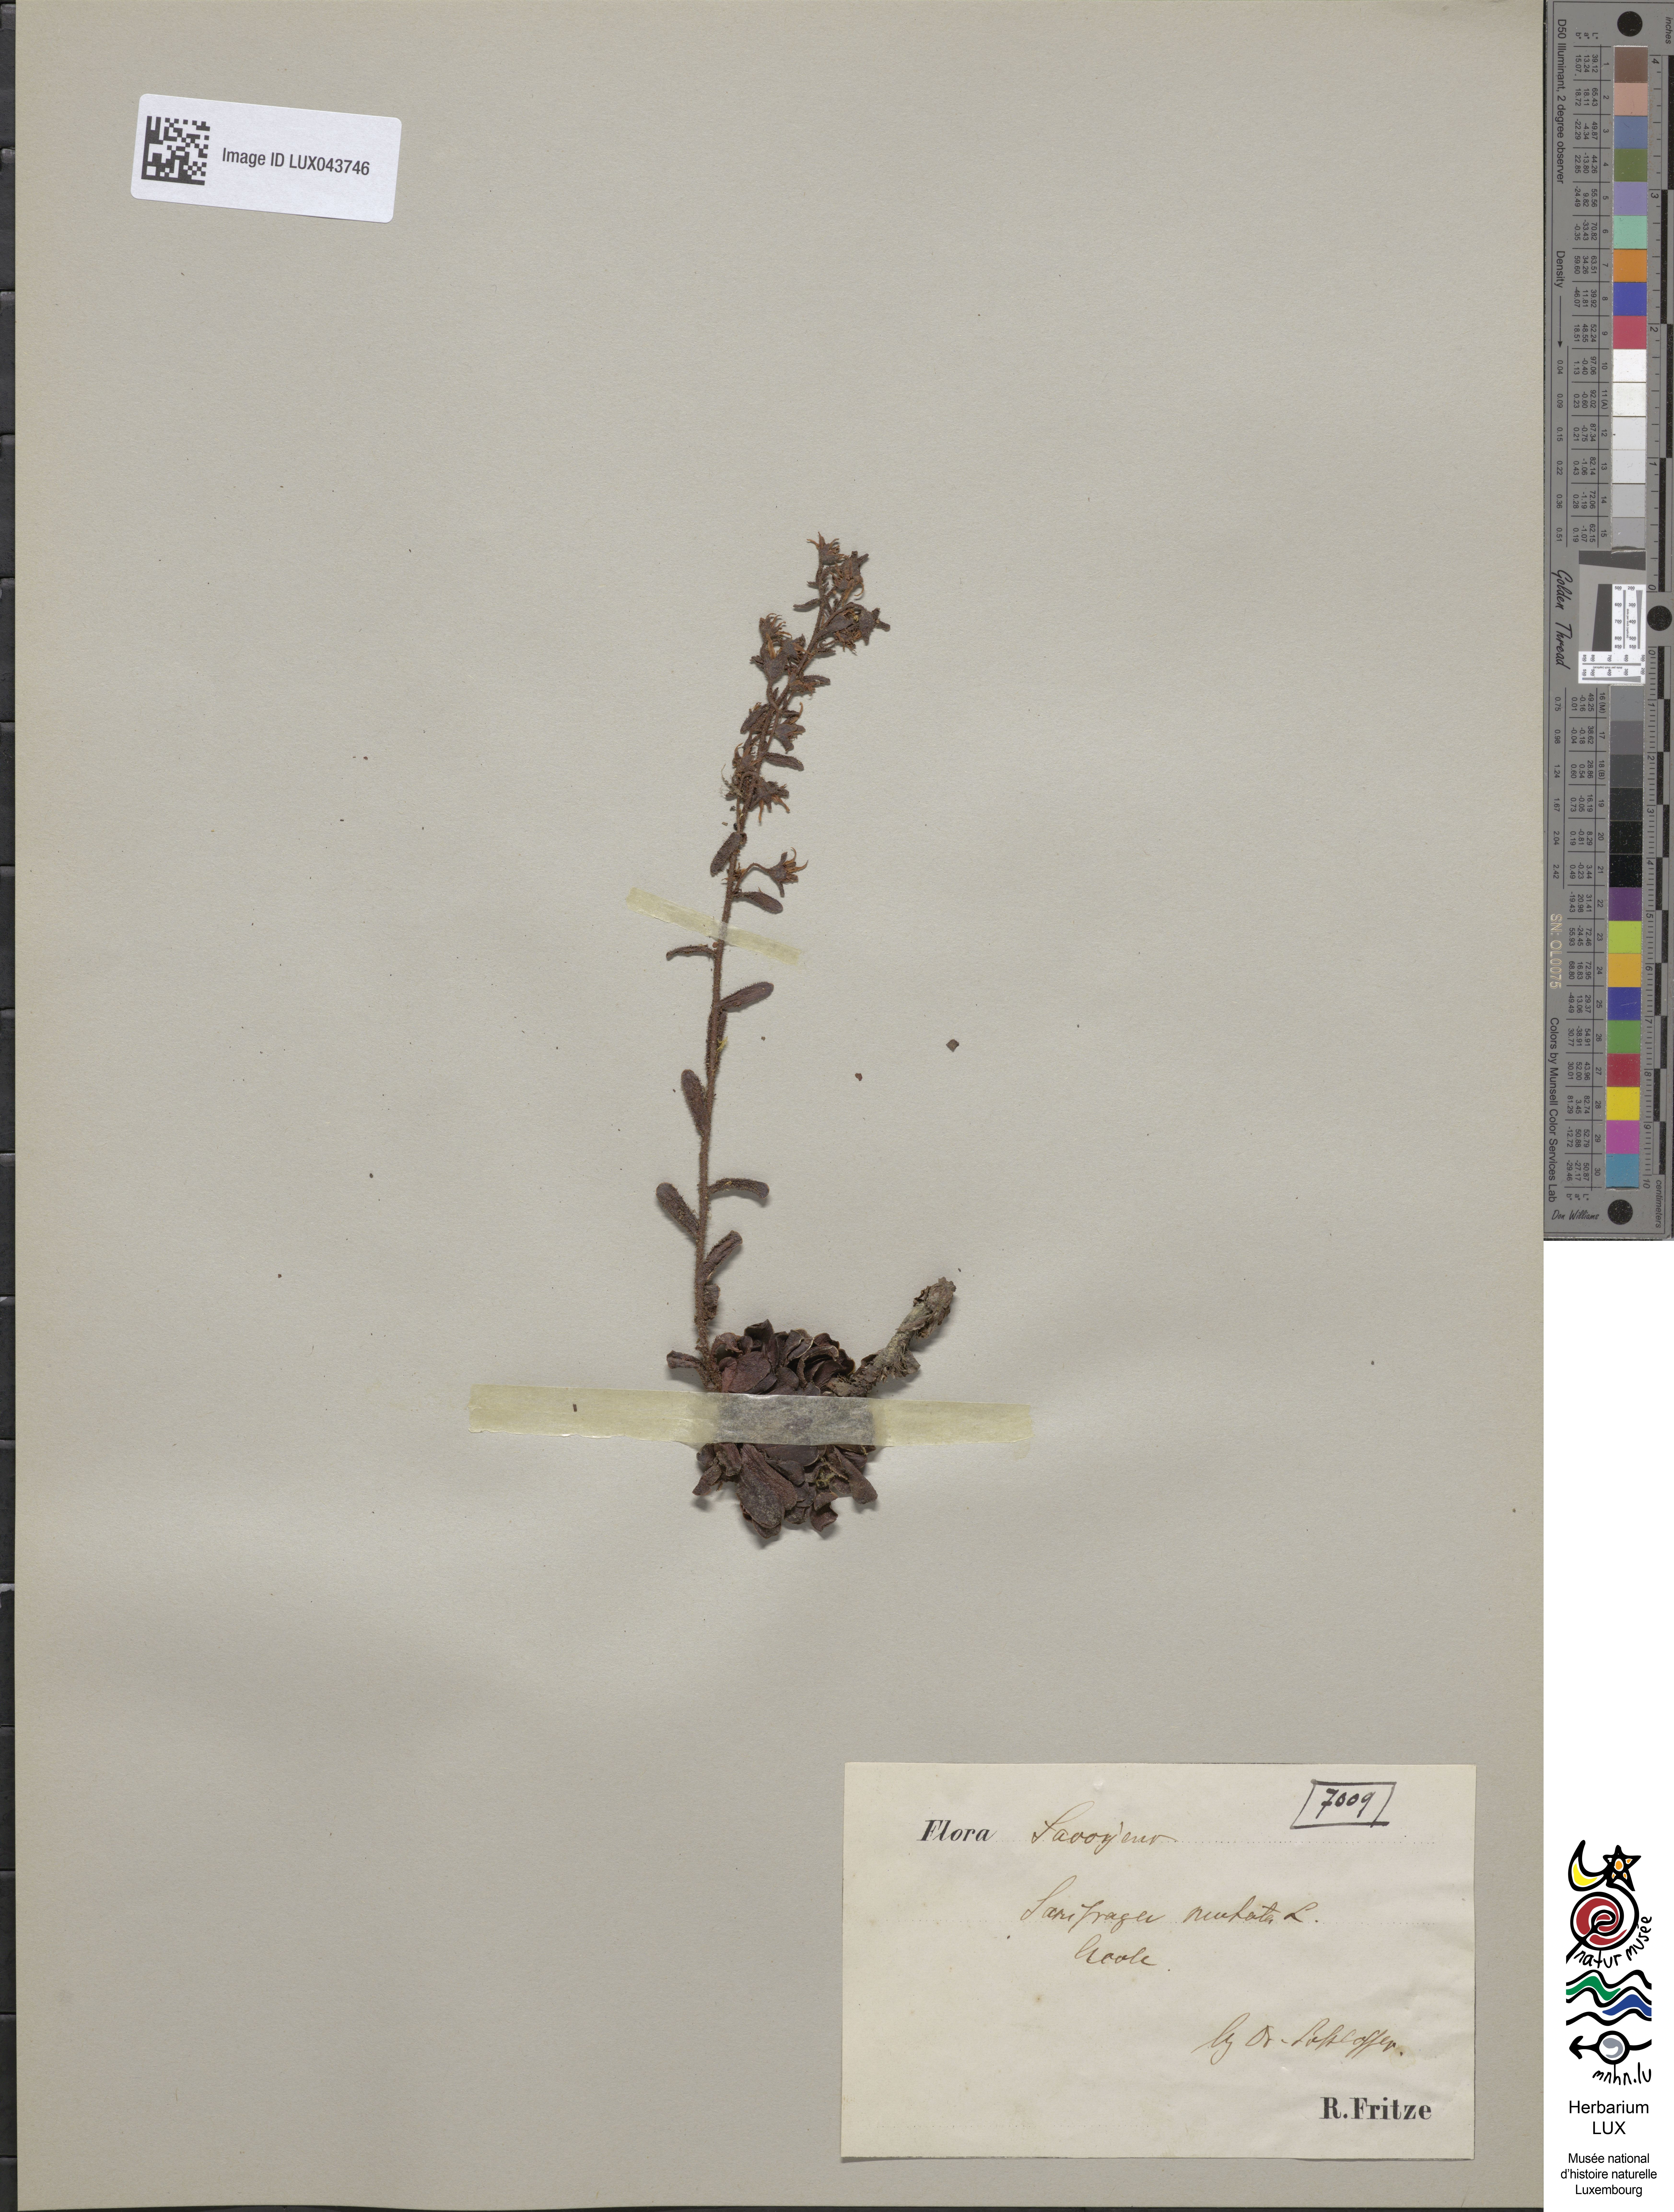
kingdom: Plantae
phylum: Tracheophyta
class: Magnoliopsida
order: Saxifragales
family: Saxifragaceae
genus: Saxifraga
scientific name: Saxifraga mutata
